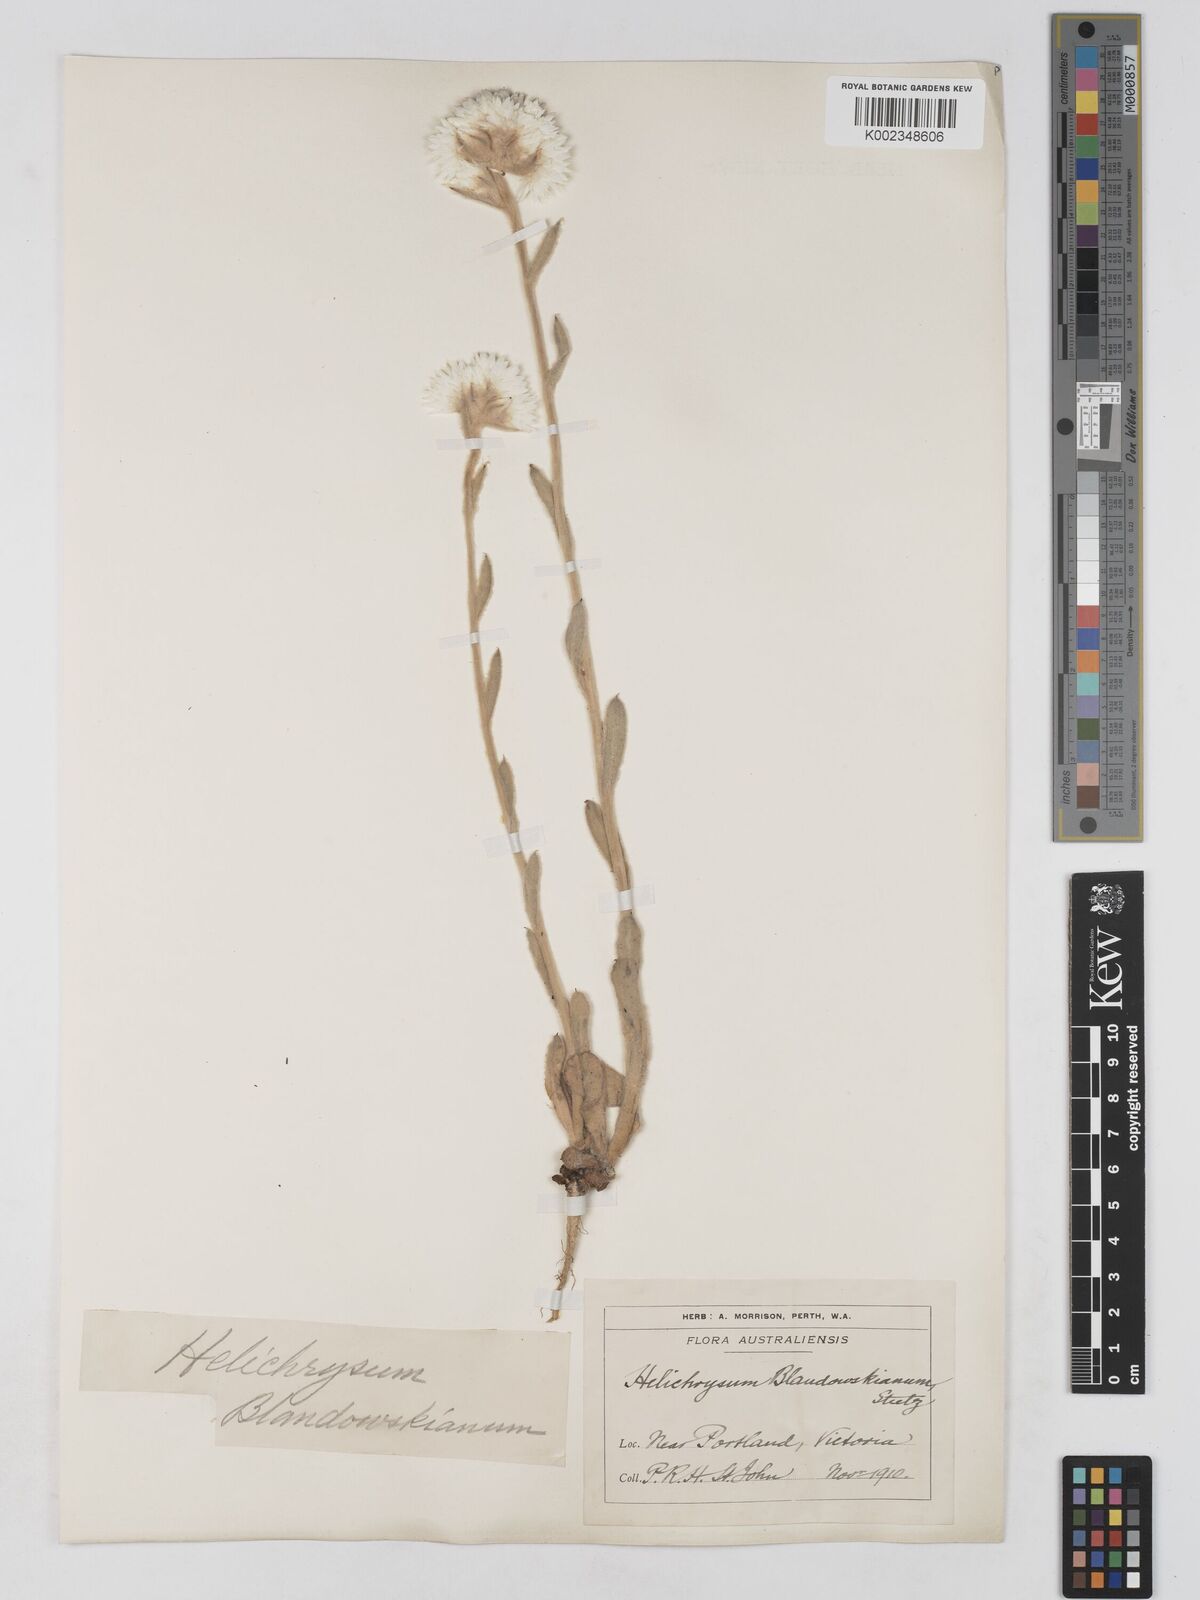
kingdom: Plantae
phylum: Tracheophyta
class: Magnoliopsida
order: Asterales
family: Asteraceae
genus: Argentipallium
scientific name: Argentipallium blandowskianum
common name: Woolly everlasting
